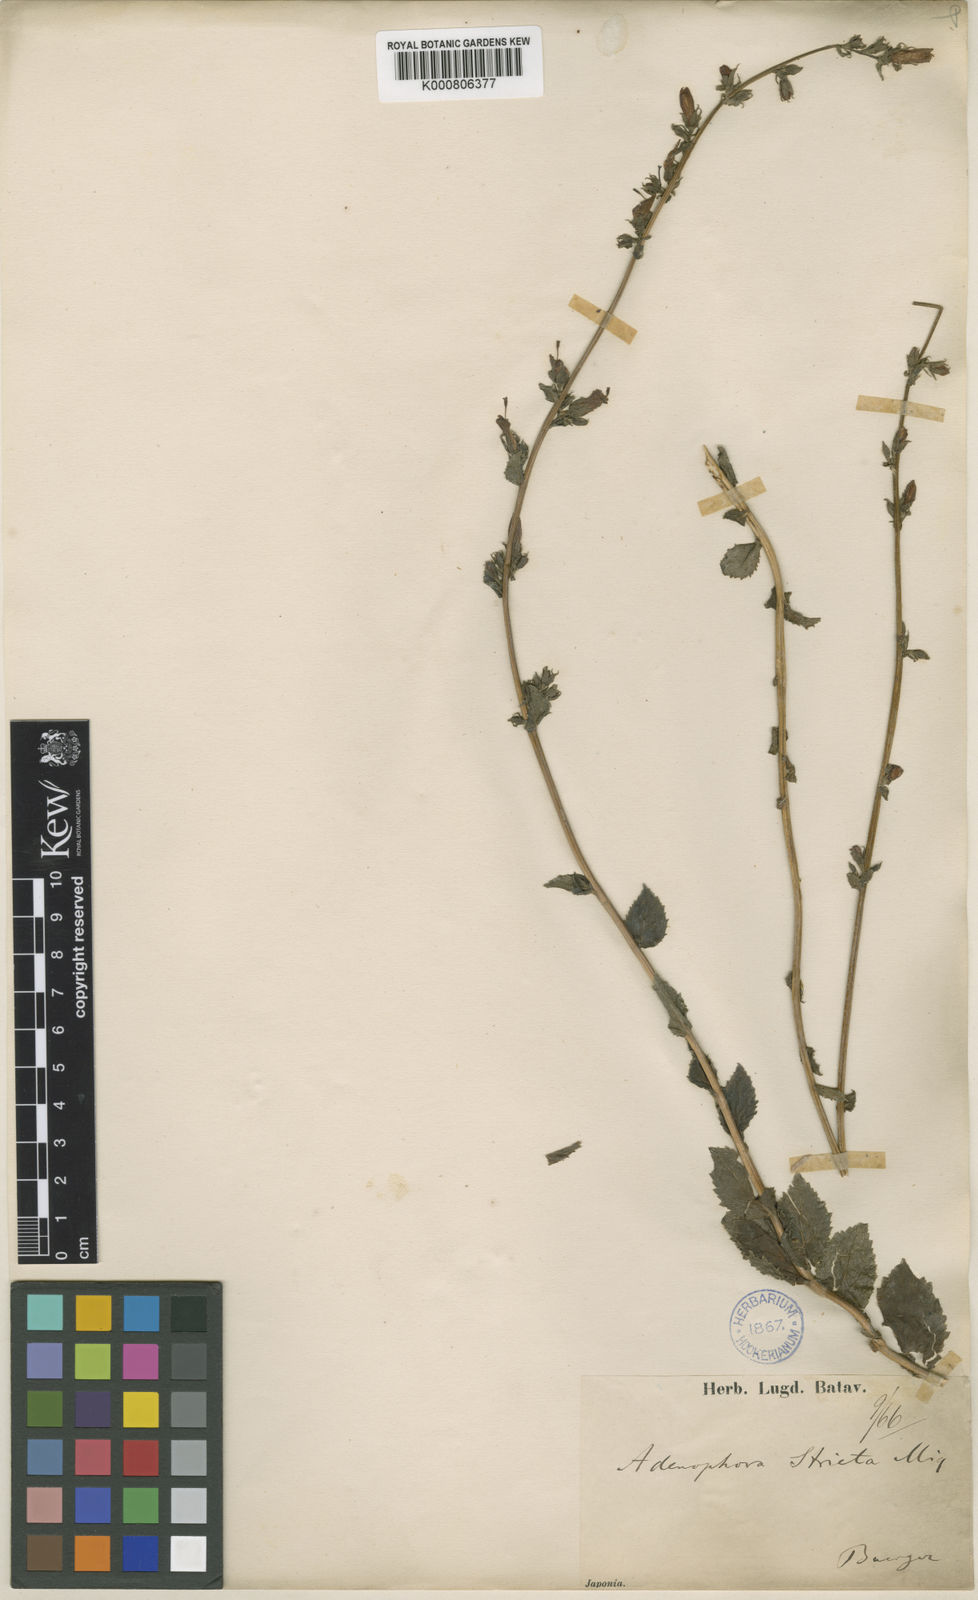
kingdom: Plantae
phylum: Tracheophyta
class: Magnoliopsida
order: Asterales
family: Campanulaceae
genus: Adenophora
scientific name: Adenophora stricta
